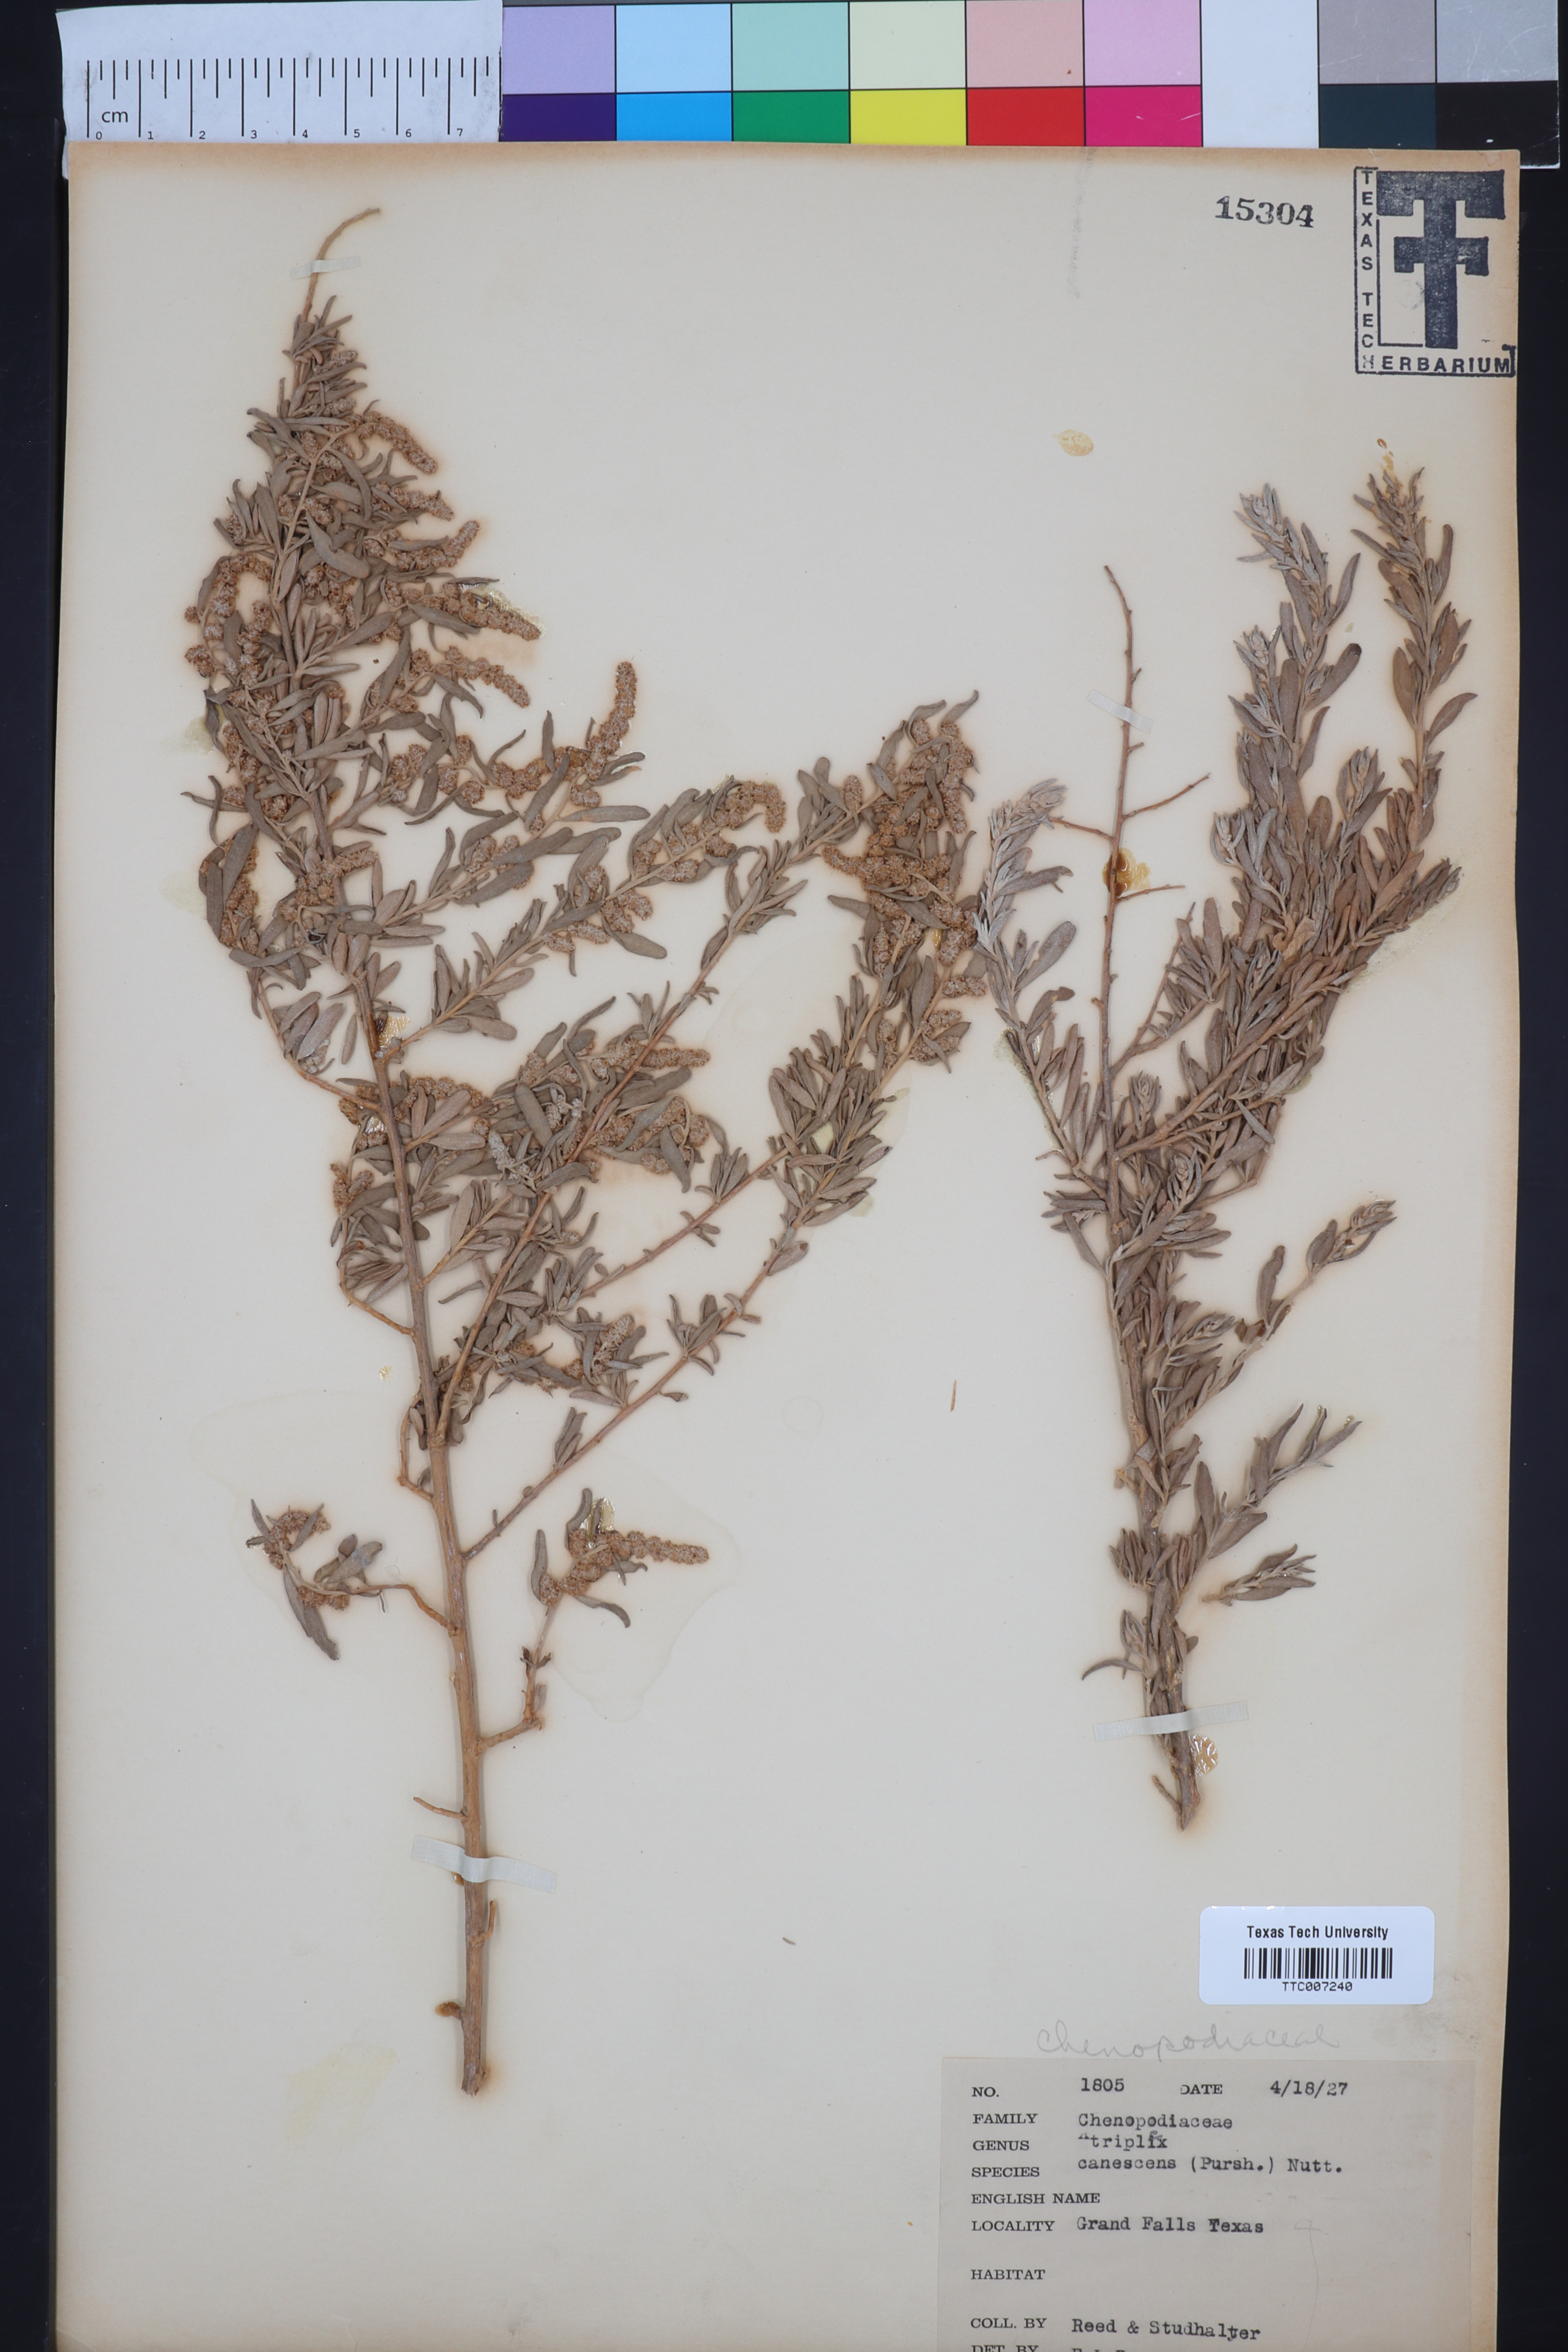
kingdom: Plantae
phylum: Tracheophyta
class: Magnoliopsida
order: Caryophyllales
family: Amaranthaceae
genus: Atriplex
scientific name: Atriplex canescens
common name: Four-wing saltbush
